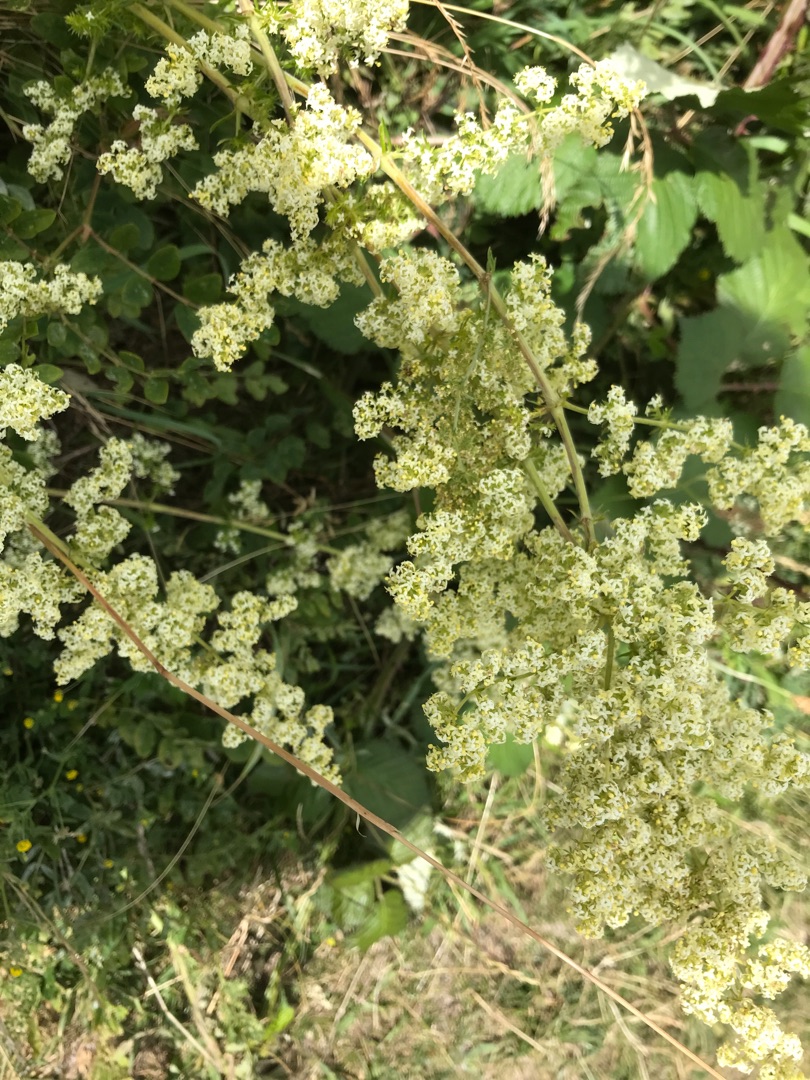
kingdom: Plantae
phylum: Tracheophyta
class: Magnoliopsida
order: Gentianales
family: Rubiaceae
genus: Galium
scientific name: Galium mollugo
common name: Hvid snerre
